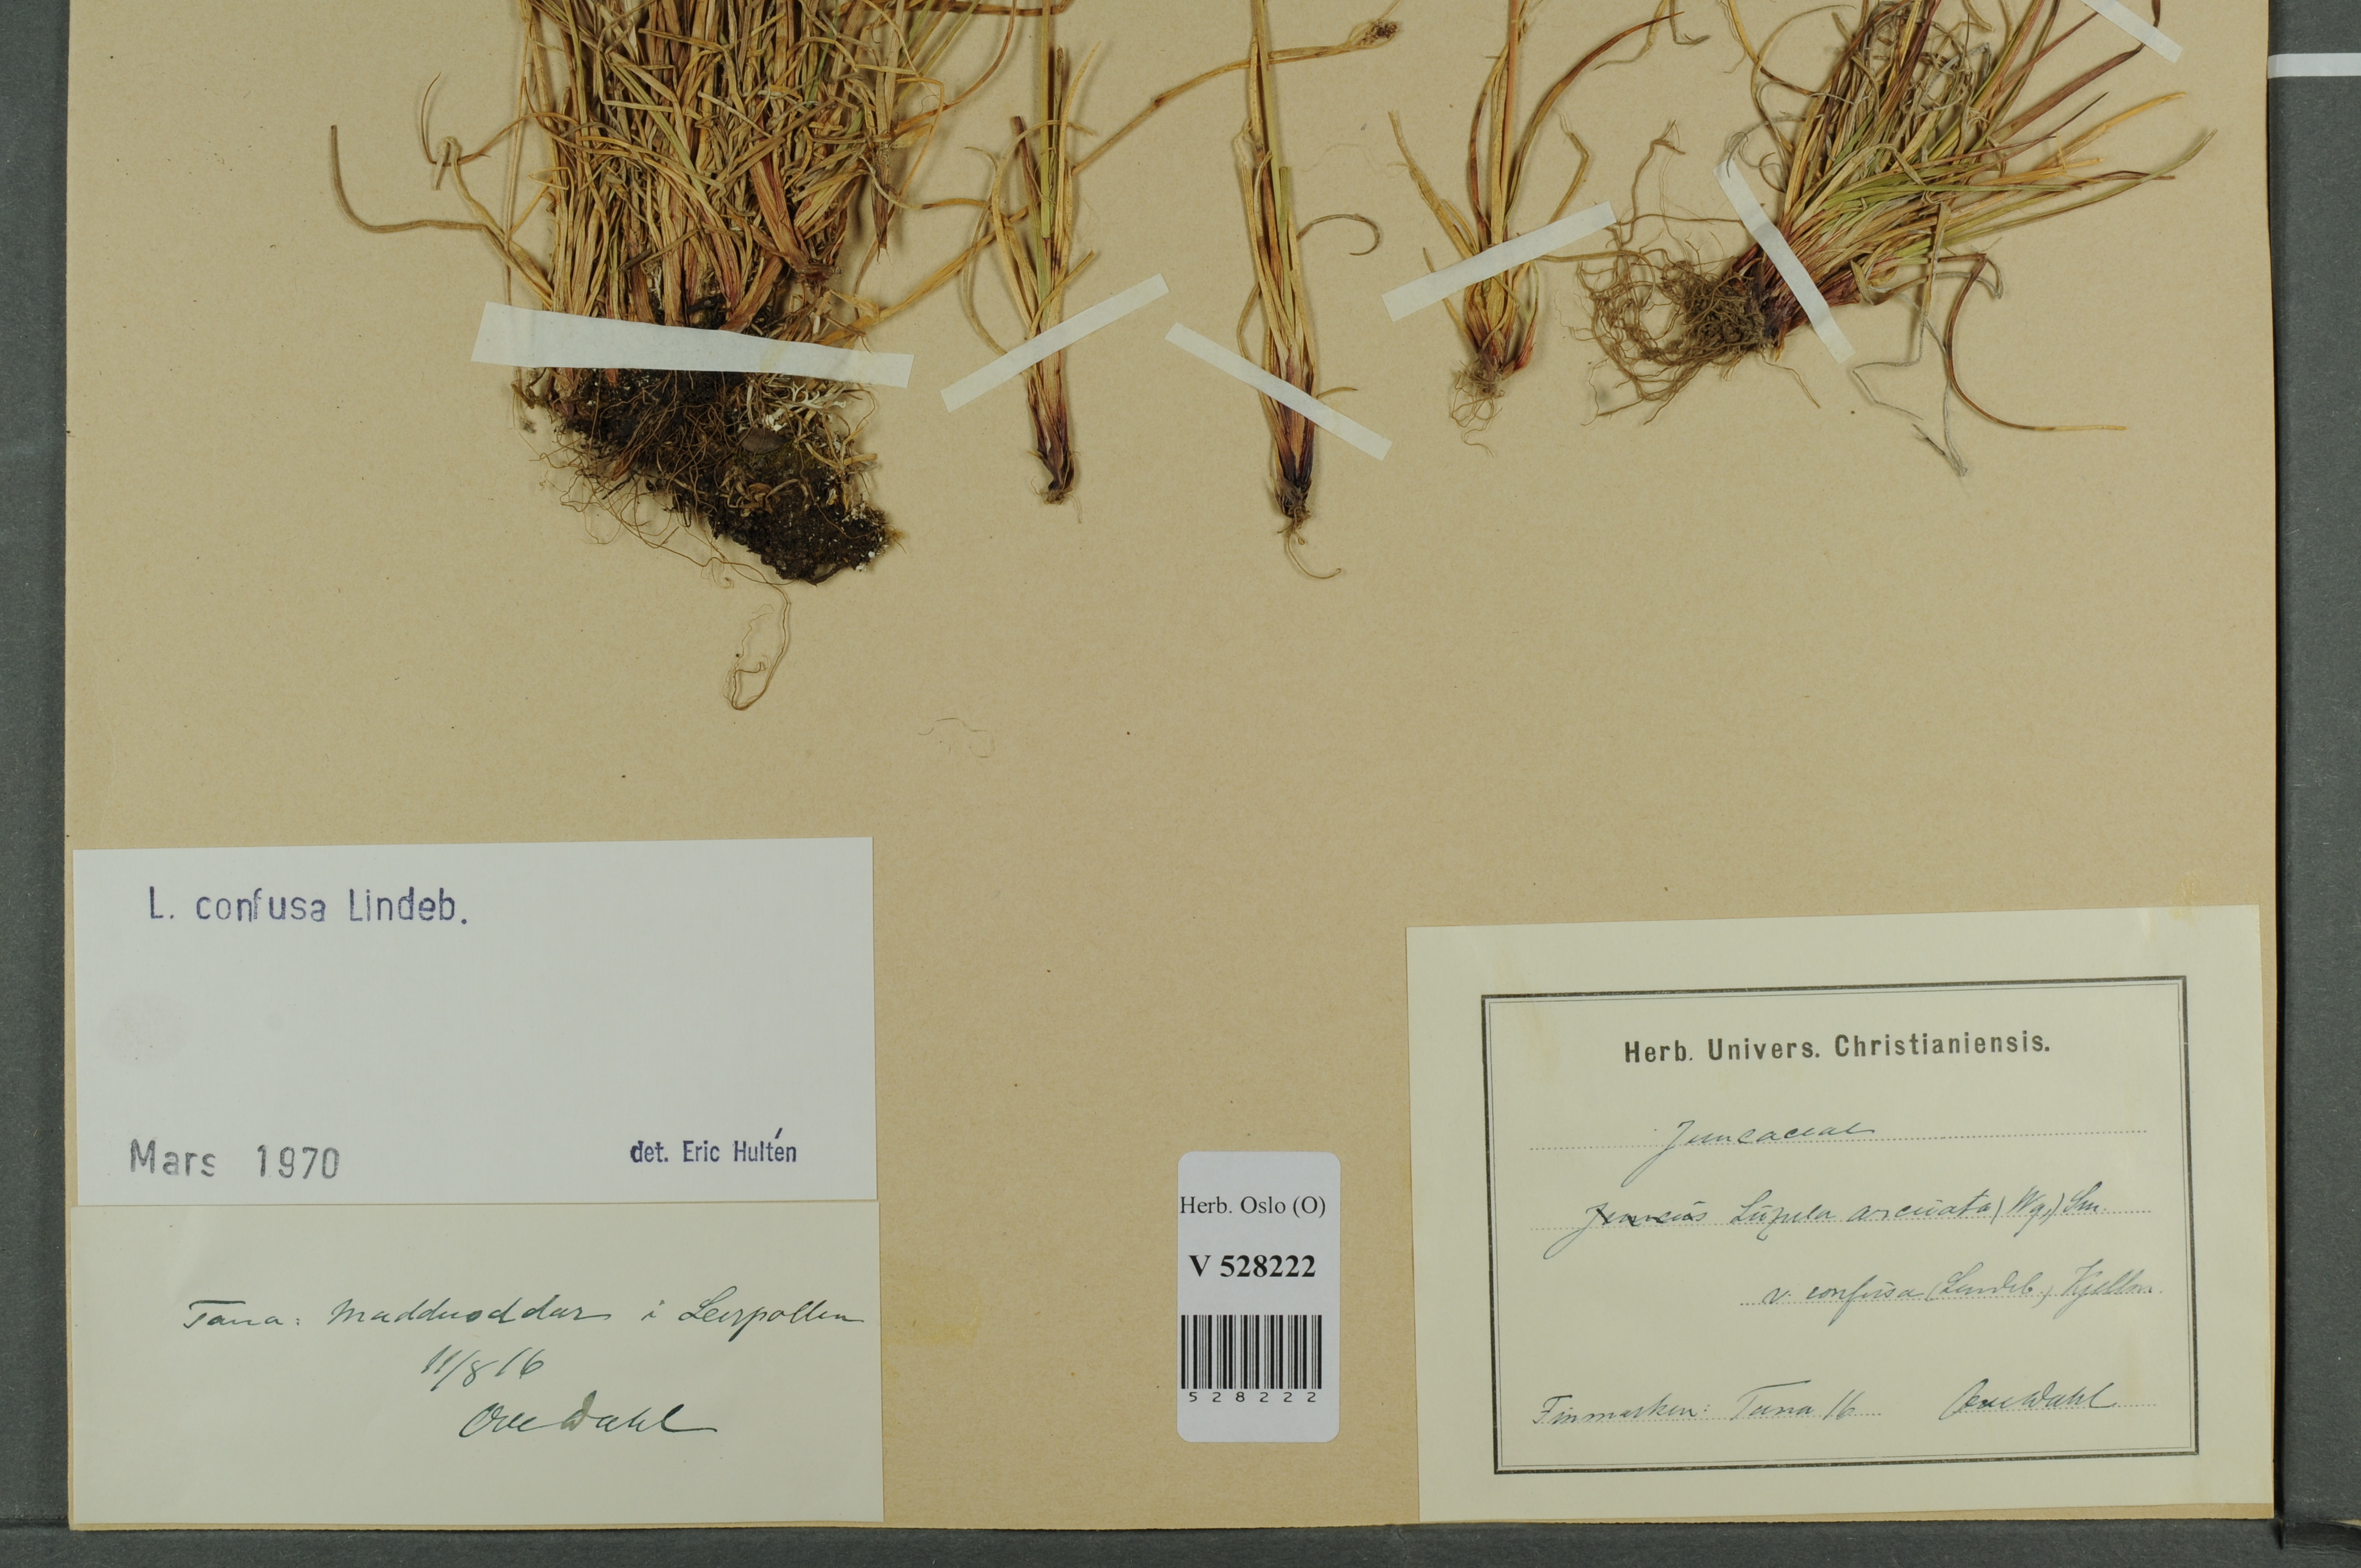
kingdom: Plantae
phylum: Tracheophyta
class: Liliopsida
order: Poales
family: Juncaceae
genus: Luzula
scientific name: Luzula confusa
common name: Northern wood rush
